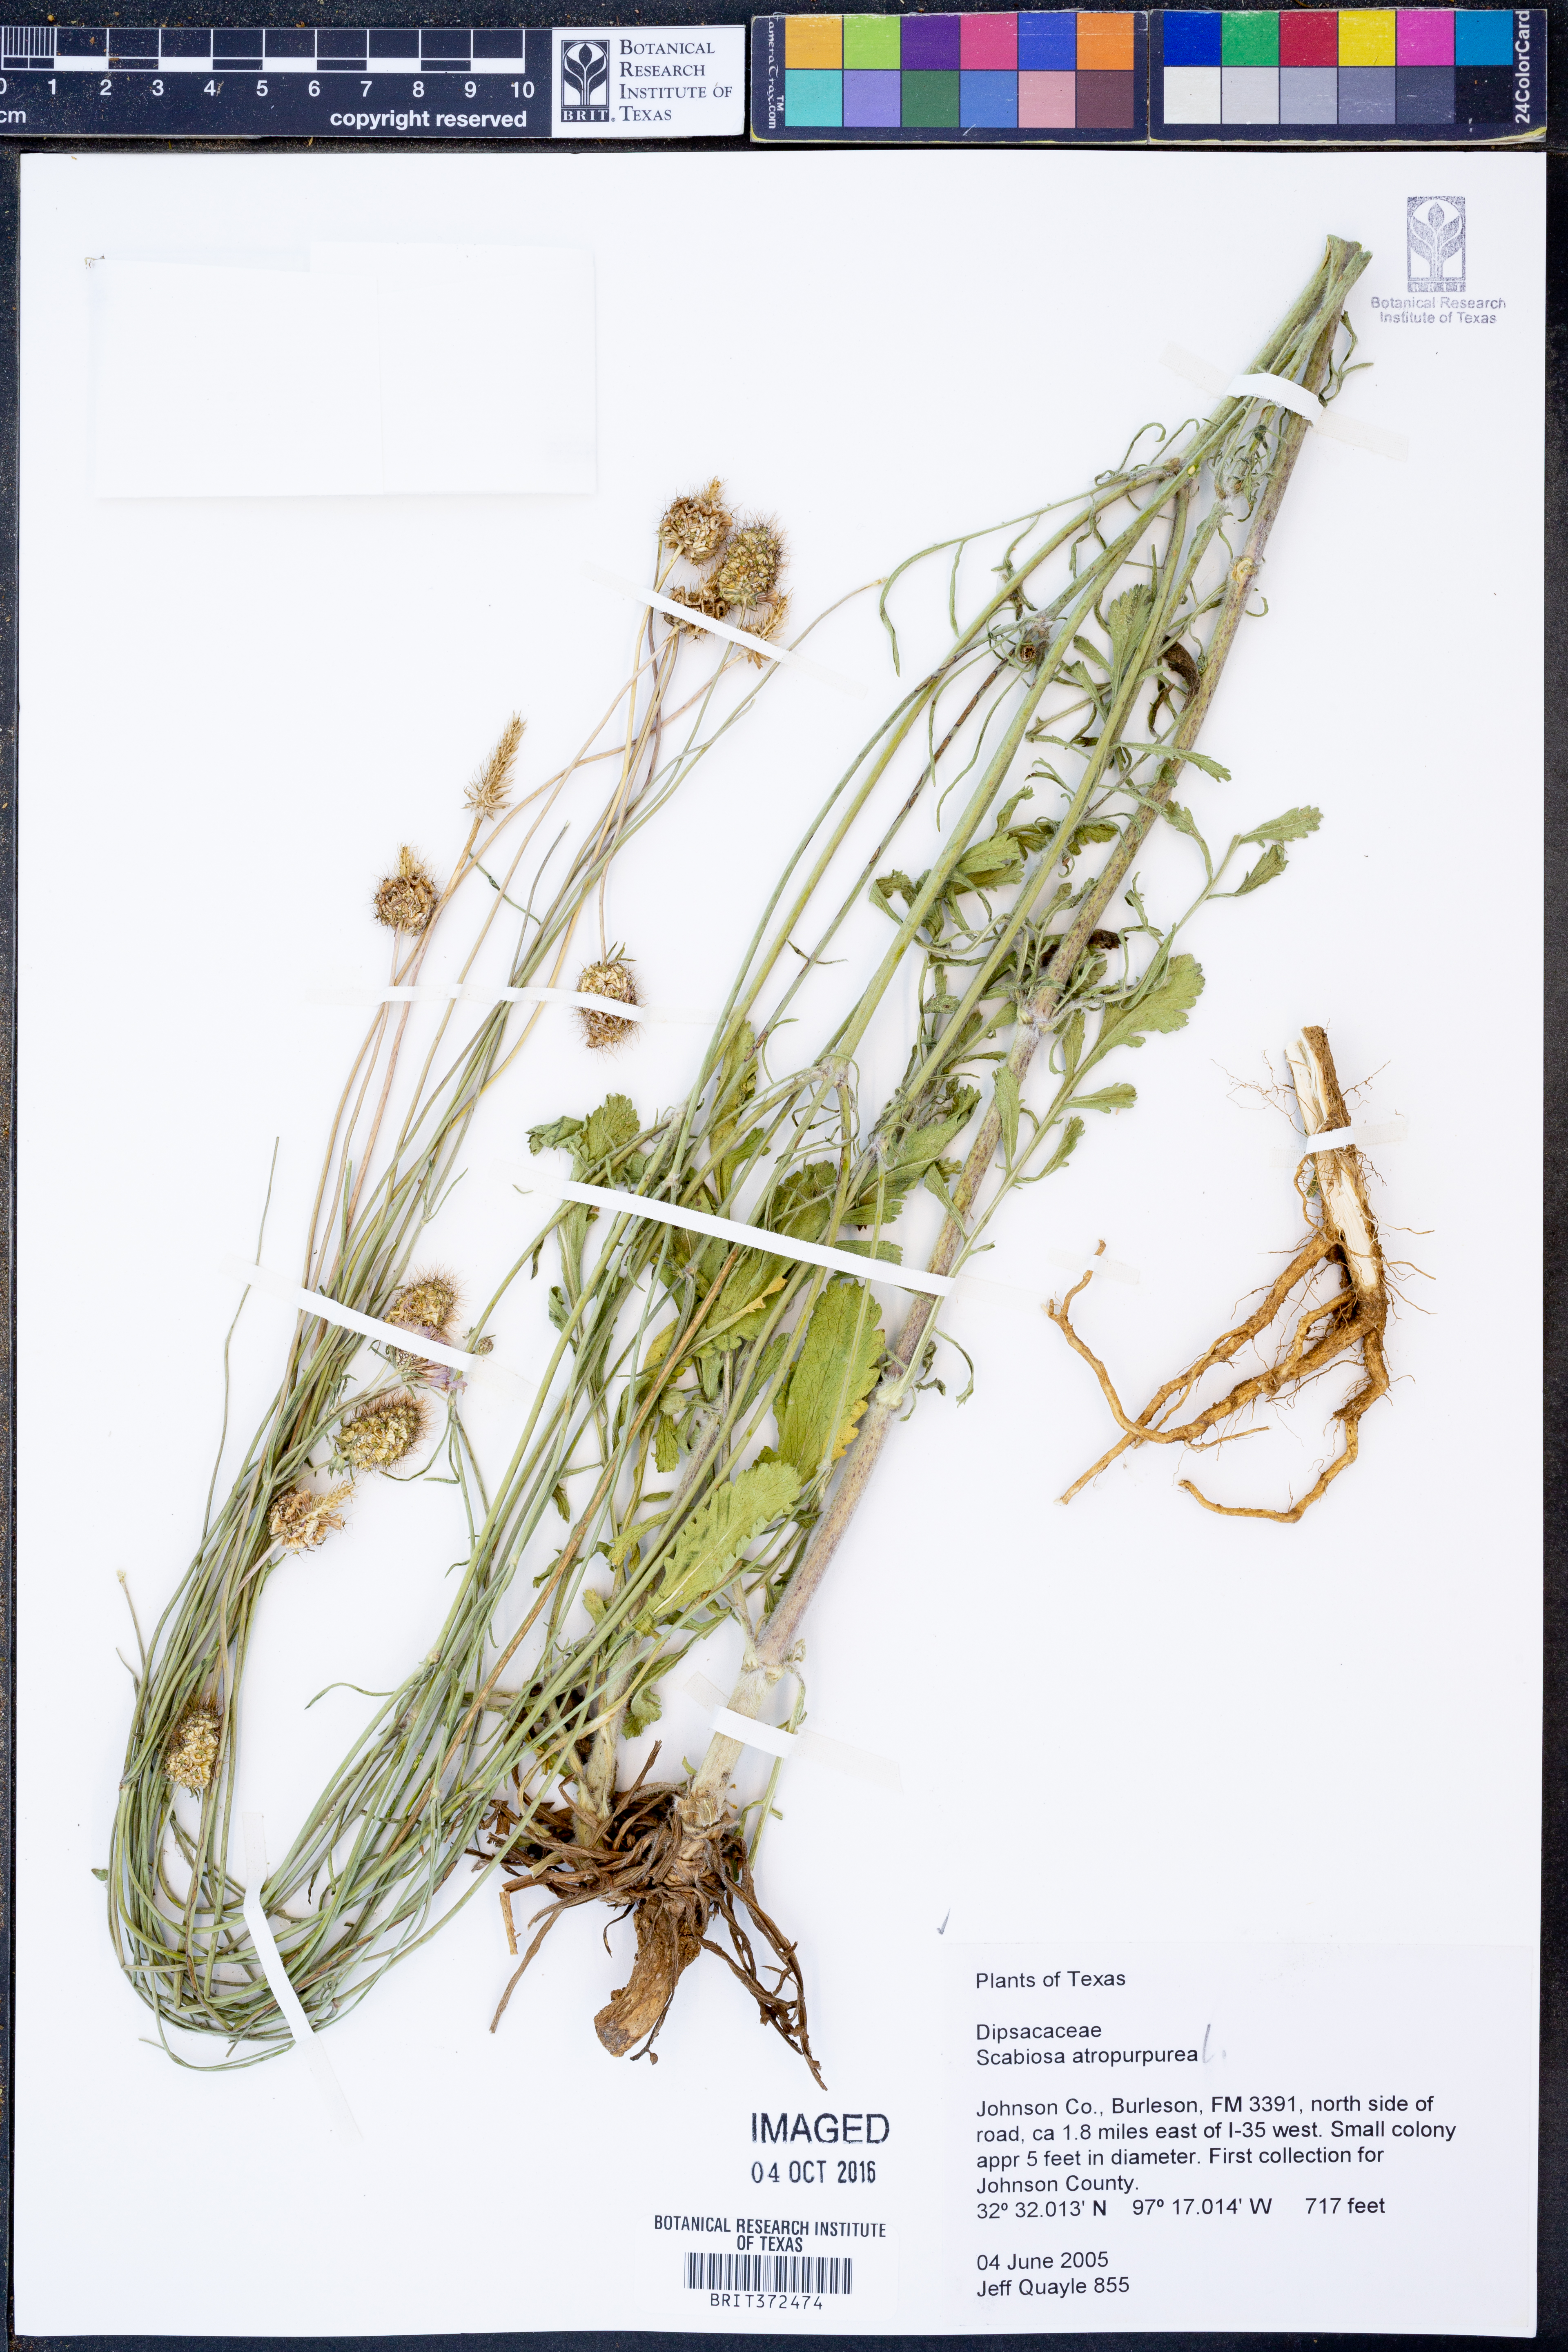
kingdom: Plantae
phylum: Tracheophyta
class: Magnoliopsida
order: Dipsacales
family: Caprifoliaceae
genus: Sixalix
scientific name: Sixalix atropurpurea
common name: Sweet scabious
